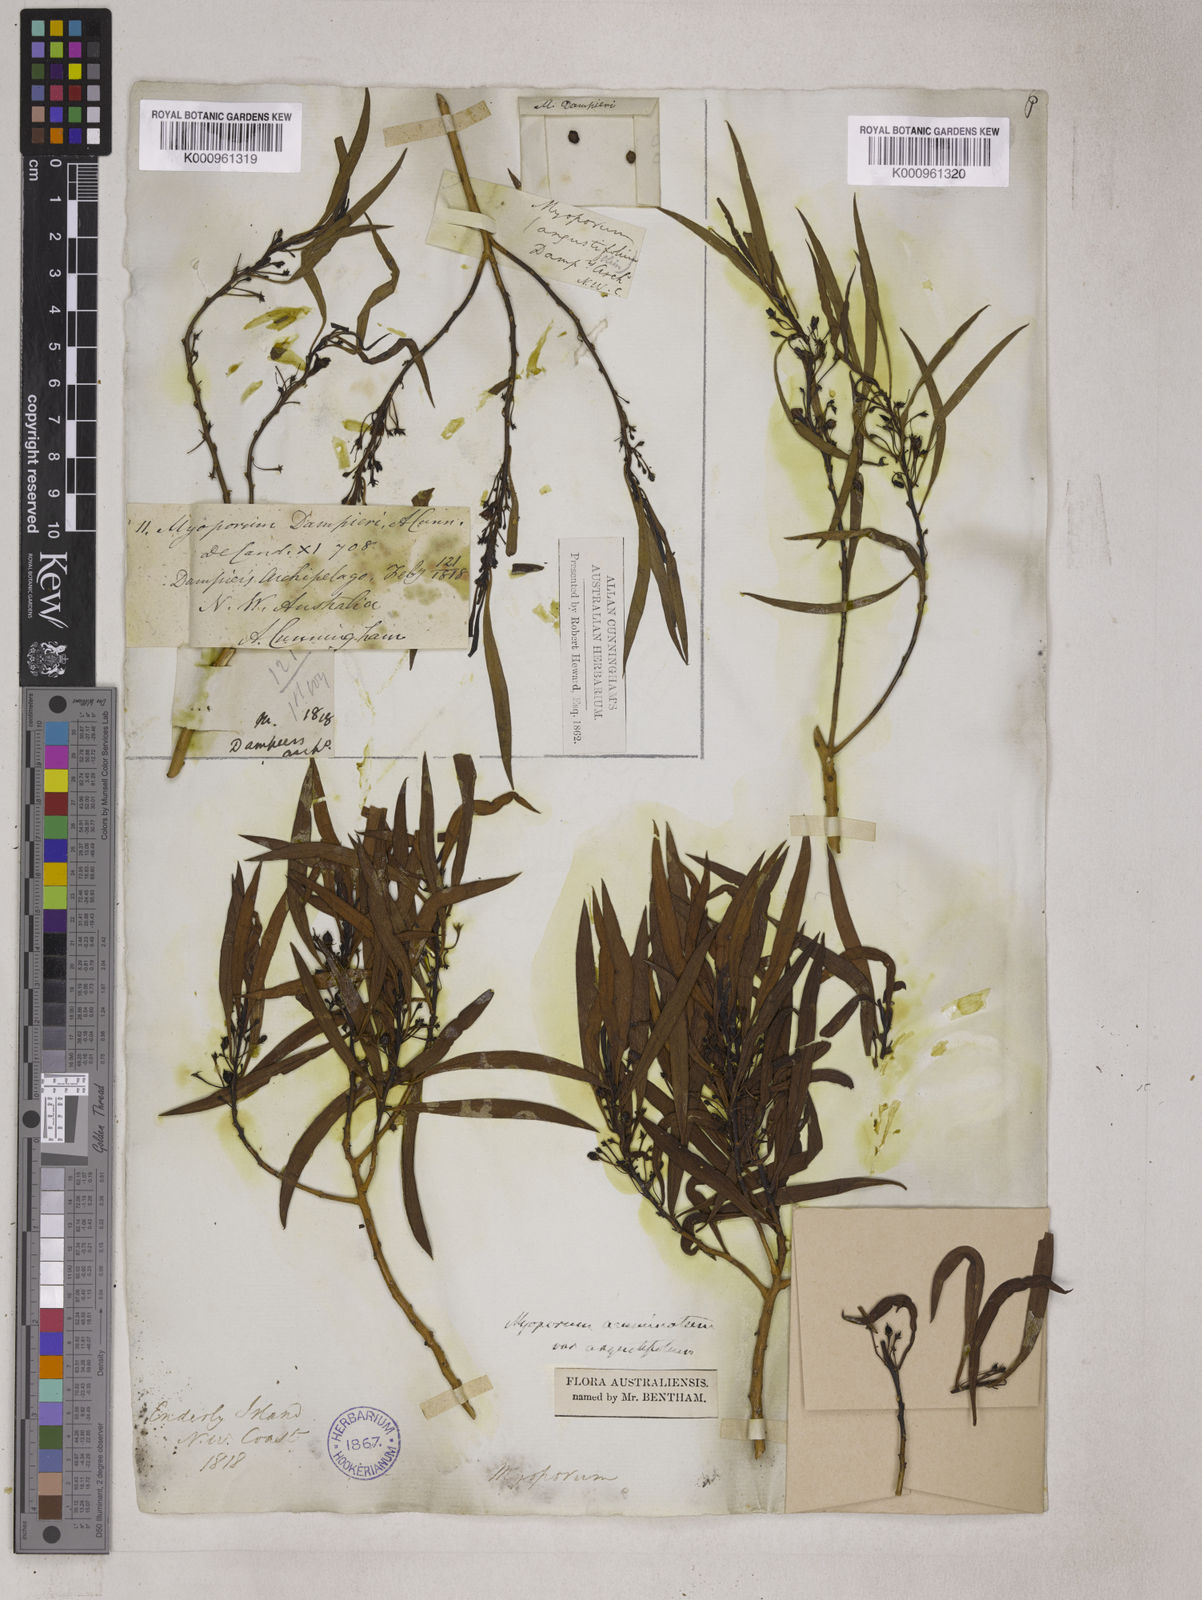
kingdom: Plantae
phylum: Tracheophyta
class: Magnoliopsida
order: Lamiales
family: Scrophulariaceae
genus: Myoporum
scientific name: Myoporum acuminatum
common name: Pointed boobialla
